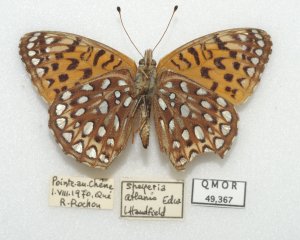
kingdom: Animalia
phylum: Arthropoda
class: Insecta
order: Lepidoptera
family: Nymphalidae
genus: Speyeria
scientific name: Speyeria atlantis
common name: Atlantis Fritillary
